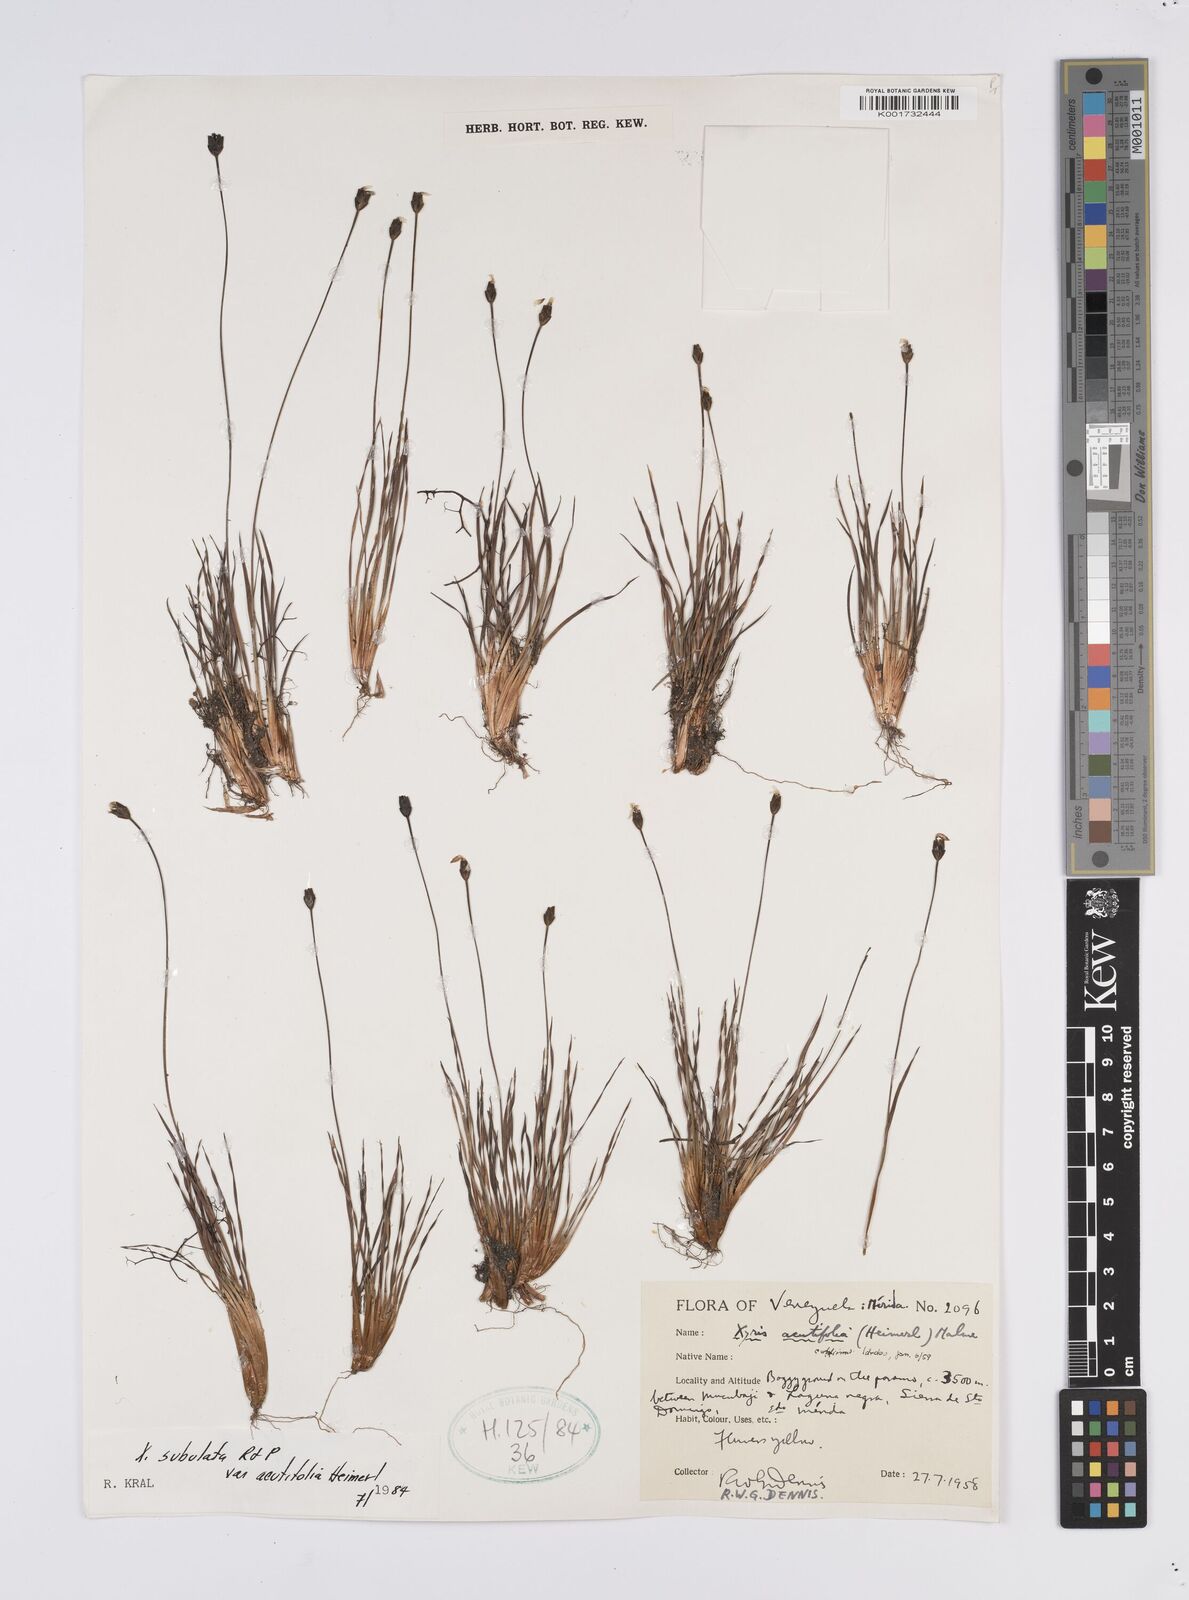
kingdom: Plantae
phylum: Tracheophyta
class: Liliopsida
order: Poales
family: Xyridaceae
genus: Xyris
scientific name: Xyris subulata
